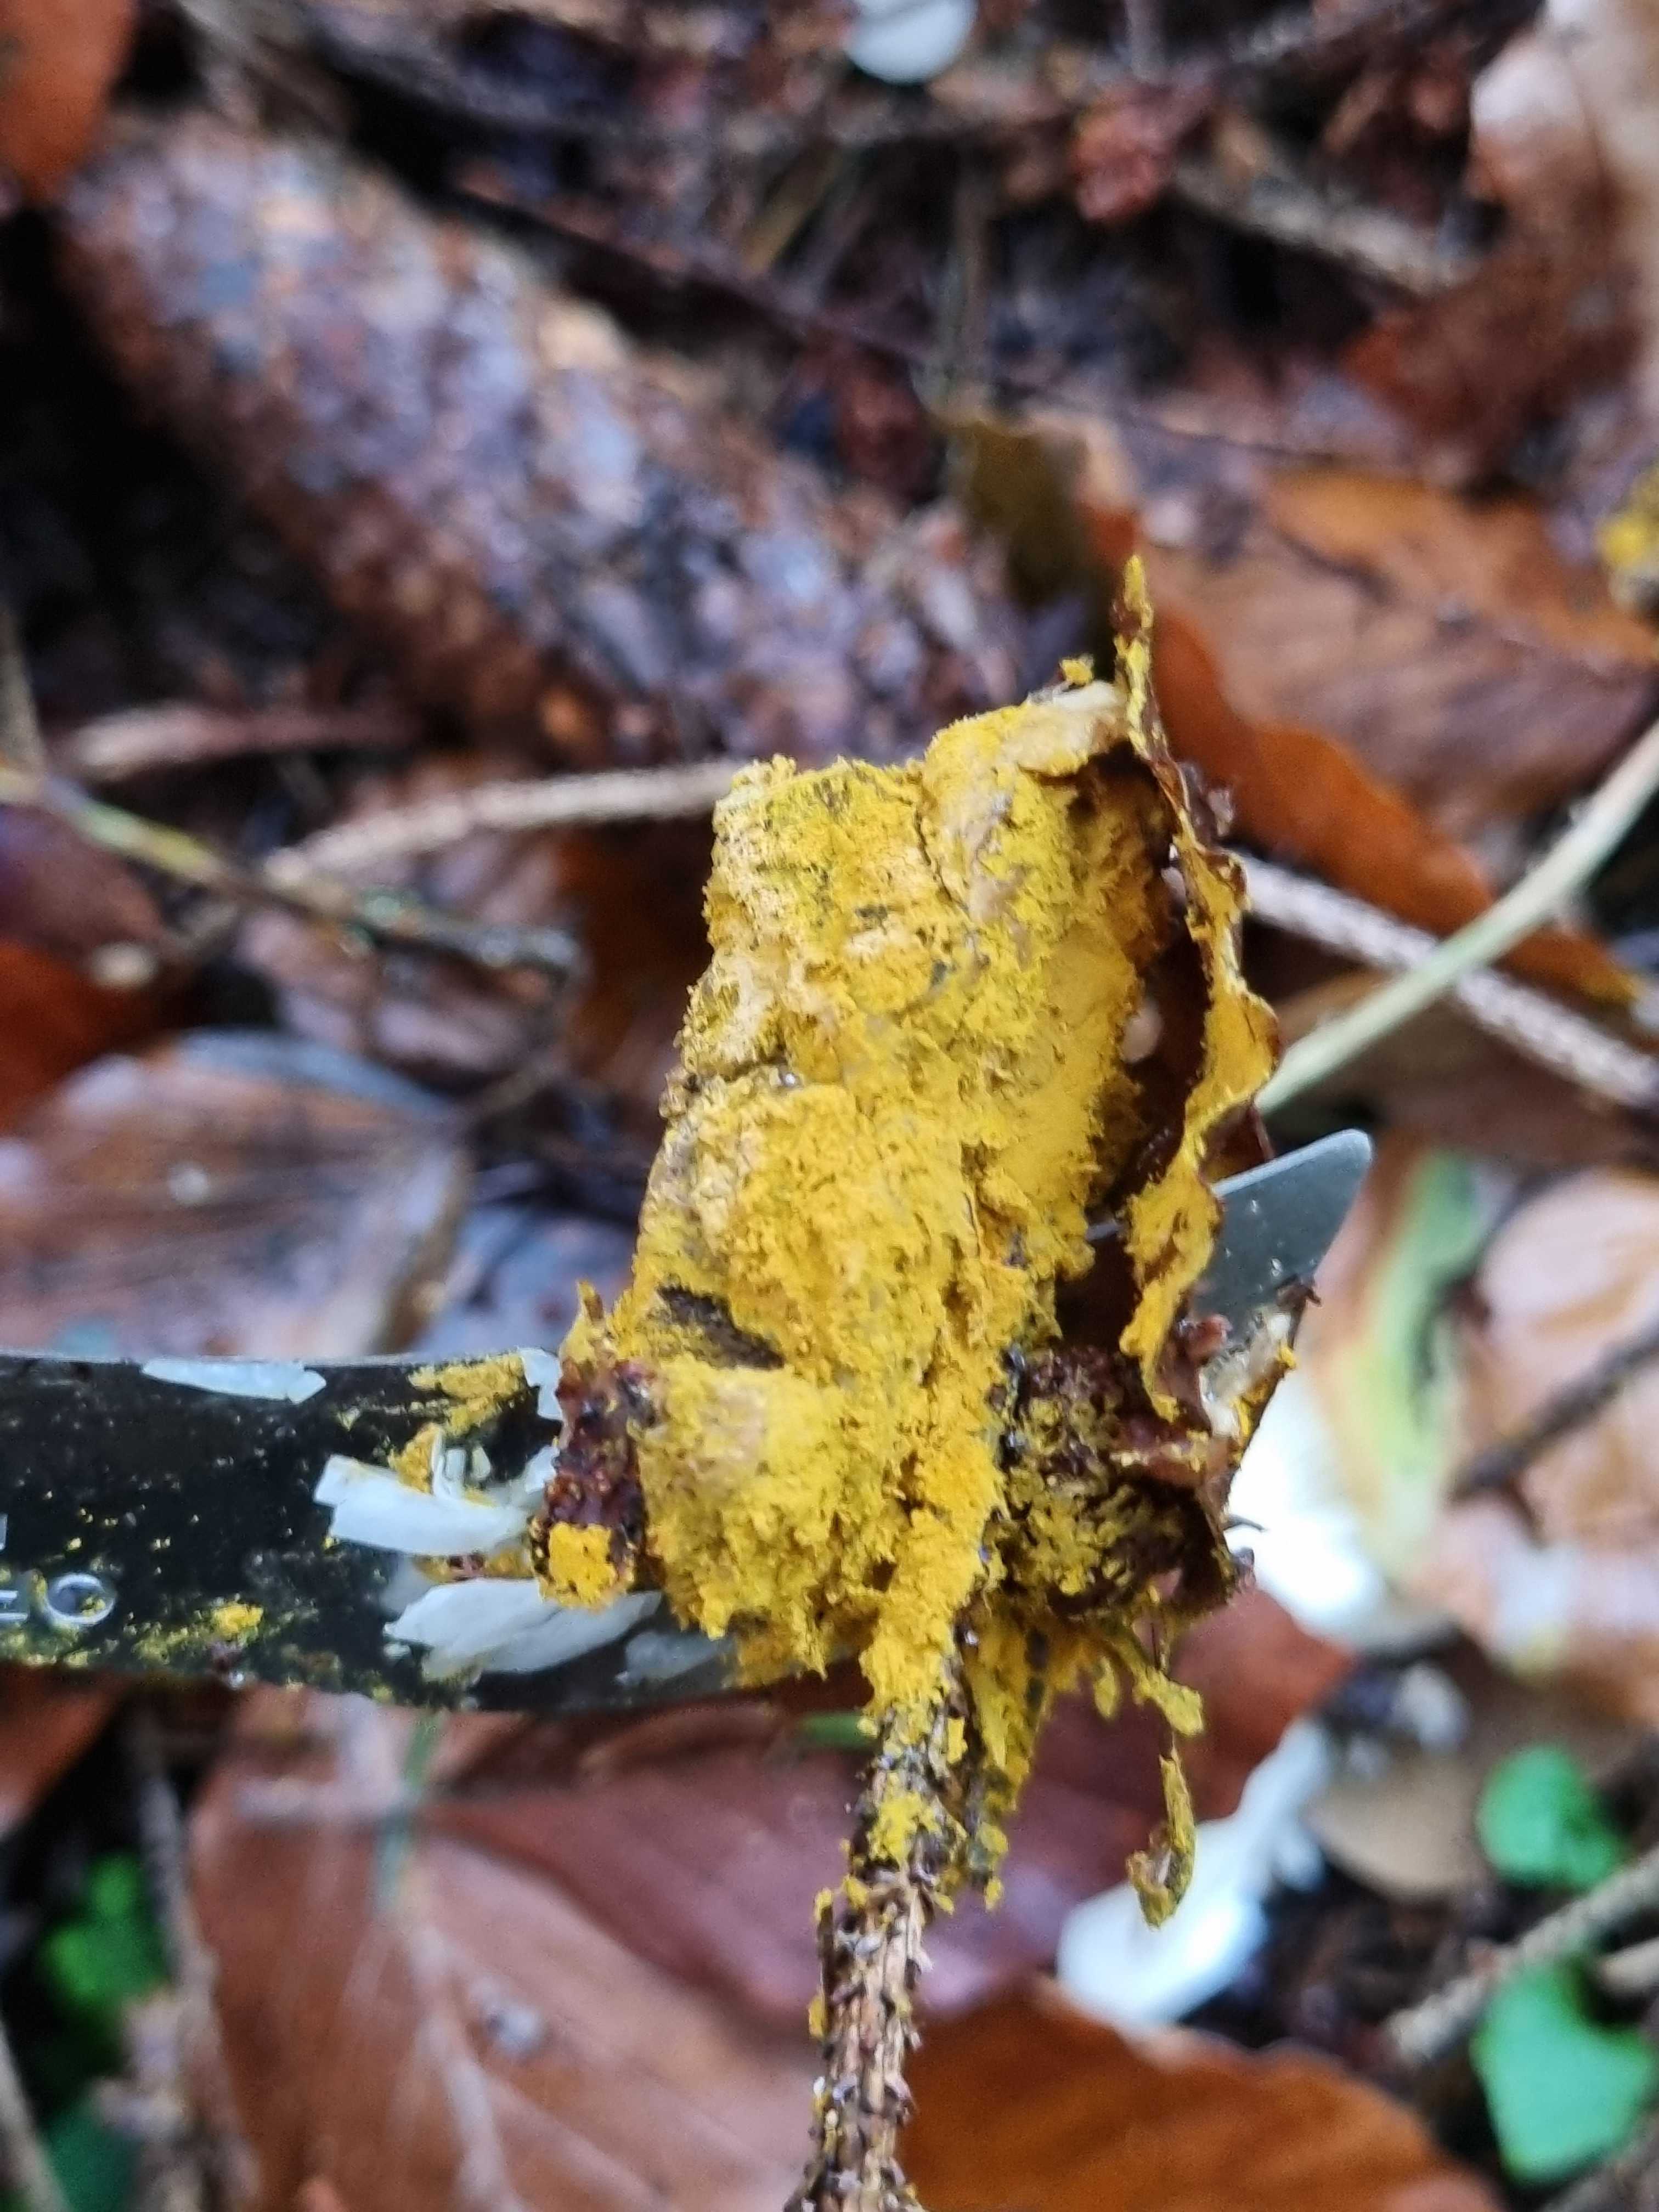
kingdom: Fungi
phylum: Ascomycota
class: Sordariomycetes
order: Hypocreales
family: Hypocreaceae
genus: Hypomyces
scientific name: Hypomyces
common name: snylteskorpe
